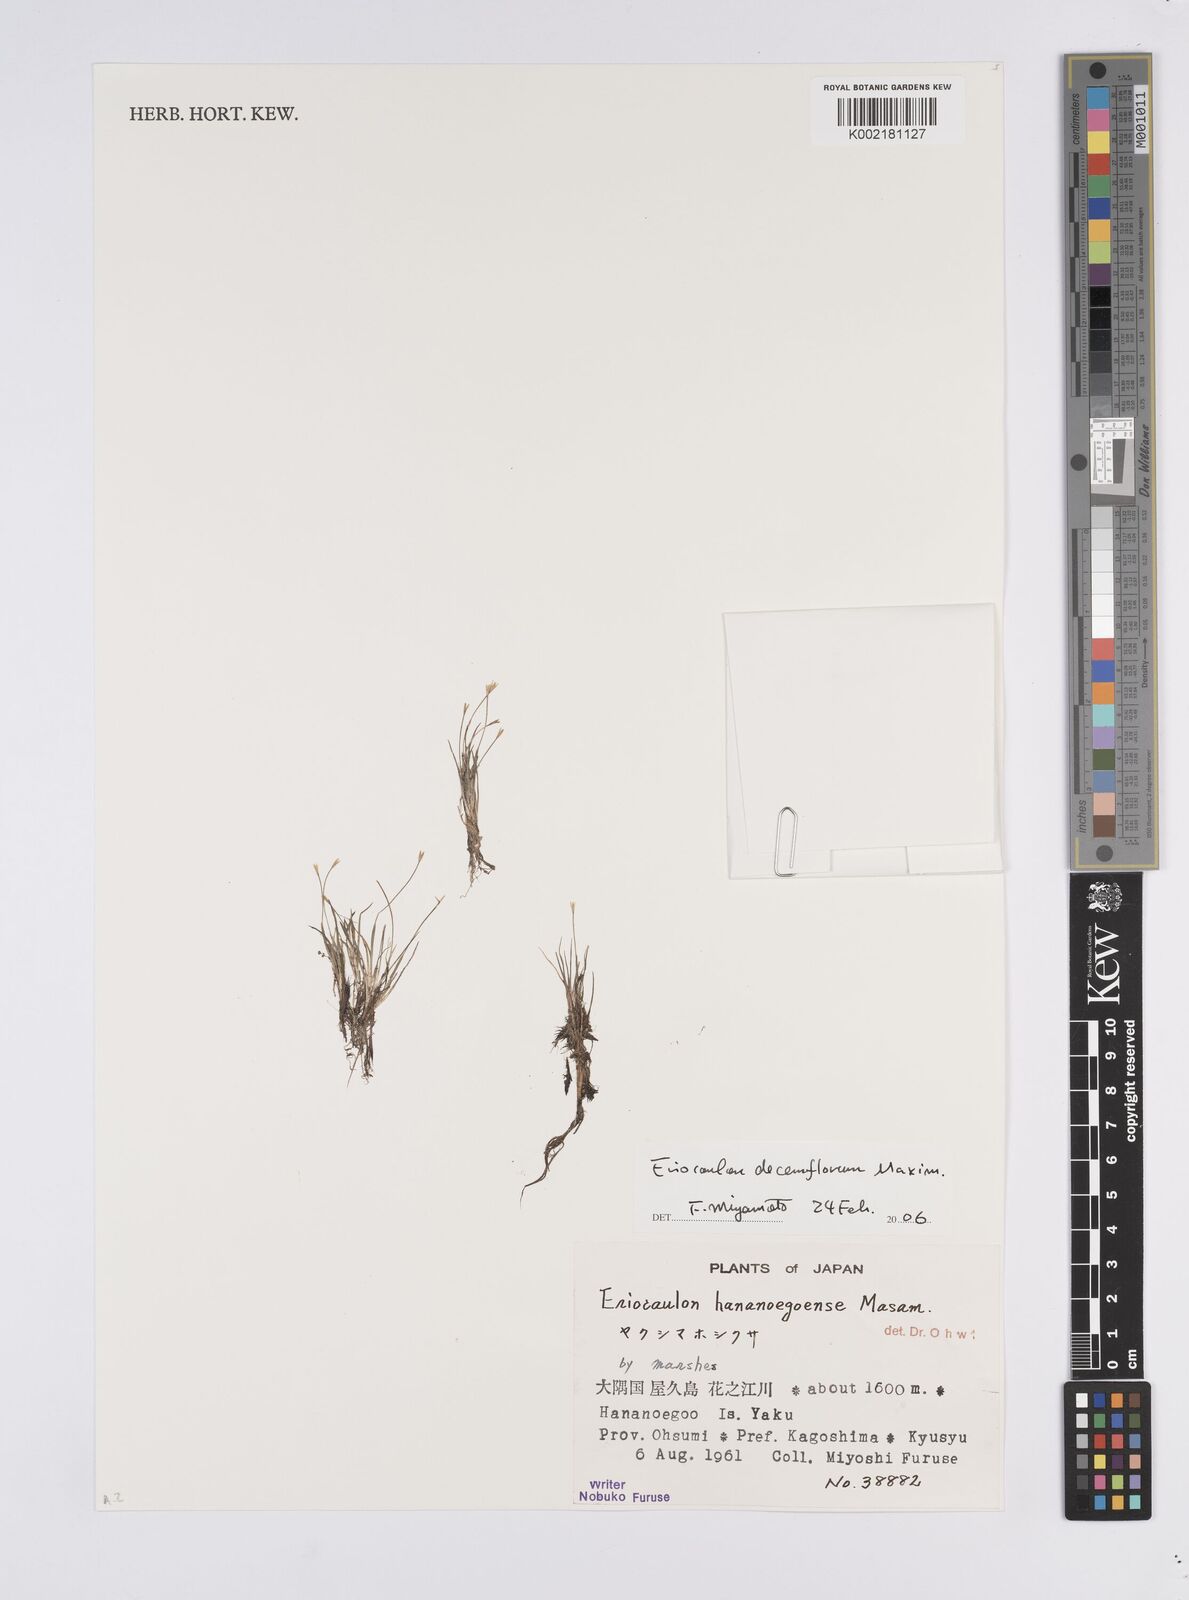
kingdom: Plantae
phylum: Tracheophyta
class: Liliopsida
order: Poales
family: Eriocaulaceae
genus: Eriocaulon
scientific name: Eriocaulon atrum
